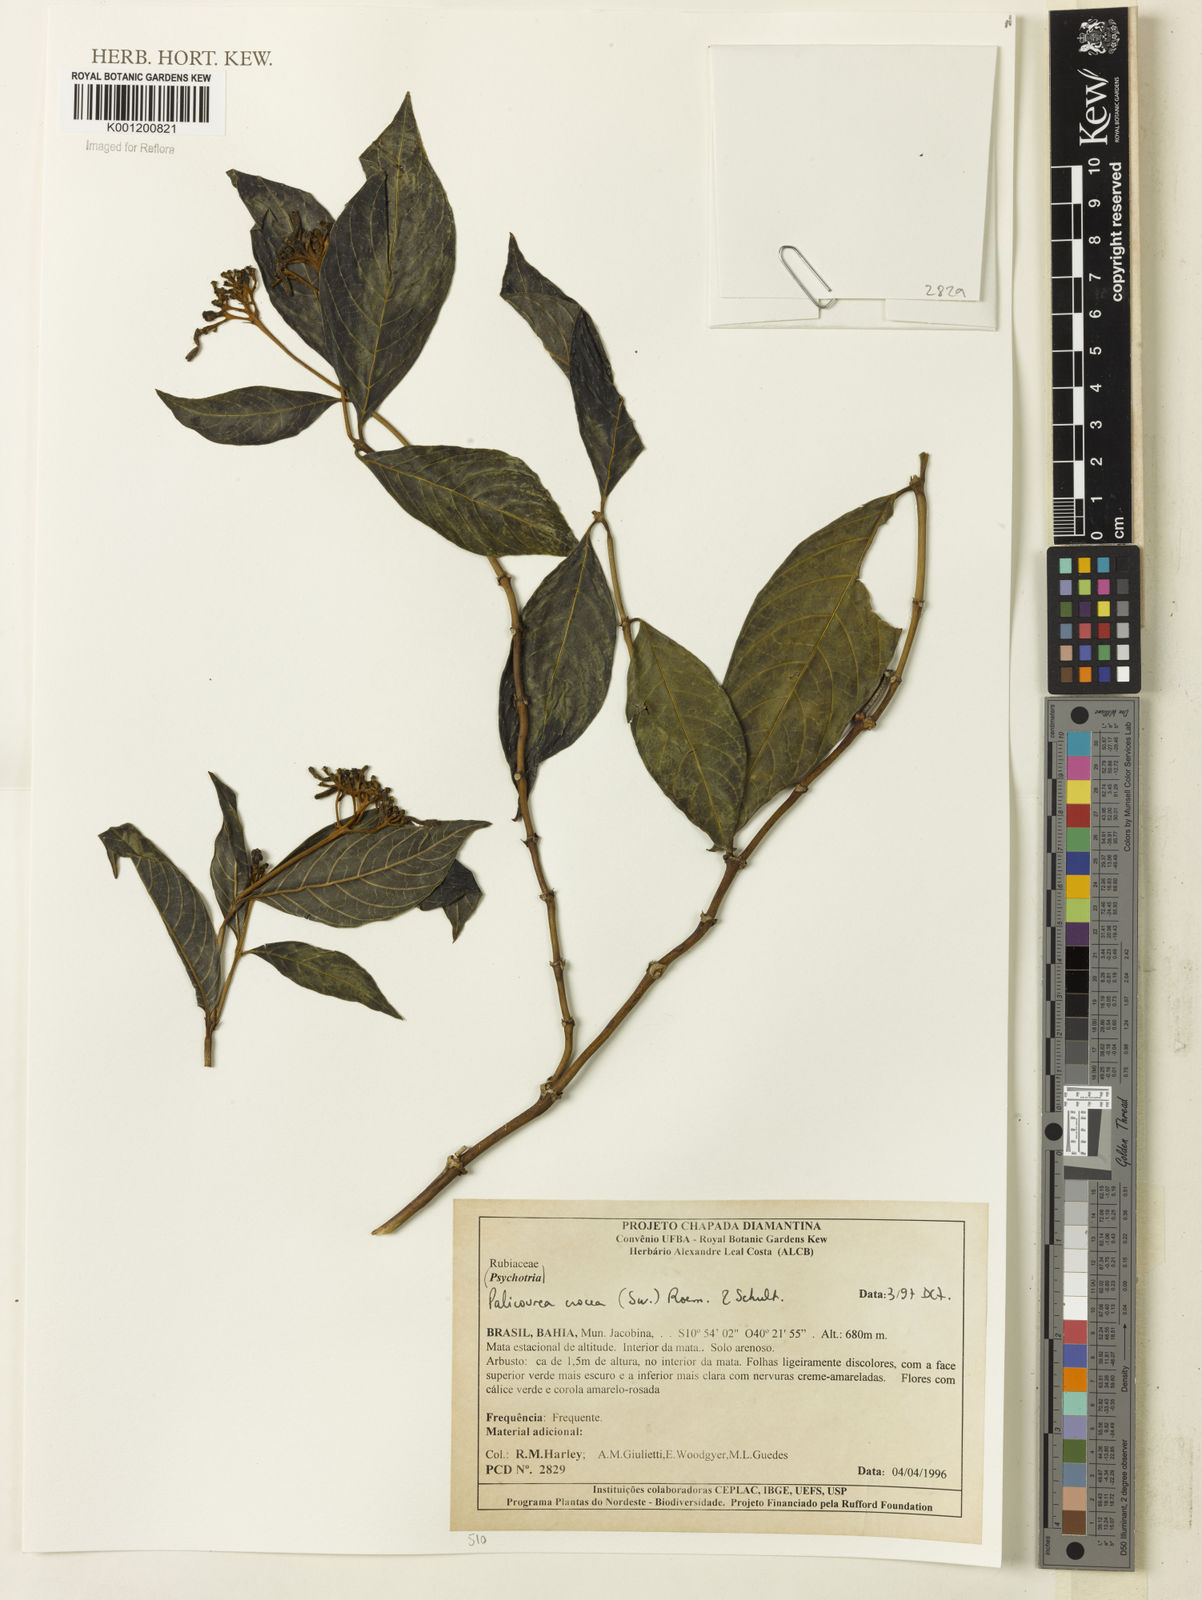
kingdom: Plantae
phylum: Tracheophyta
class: Magnoliopsida
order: Gentianales
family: Rubiaceae
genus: Palicourea
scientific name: Palicourea crocea
